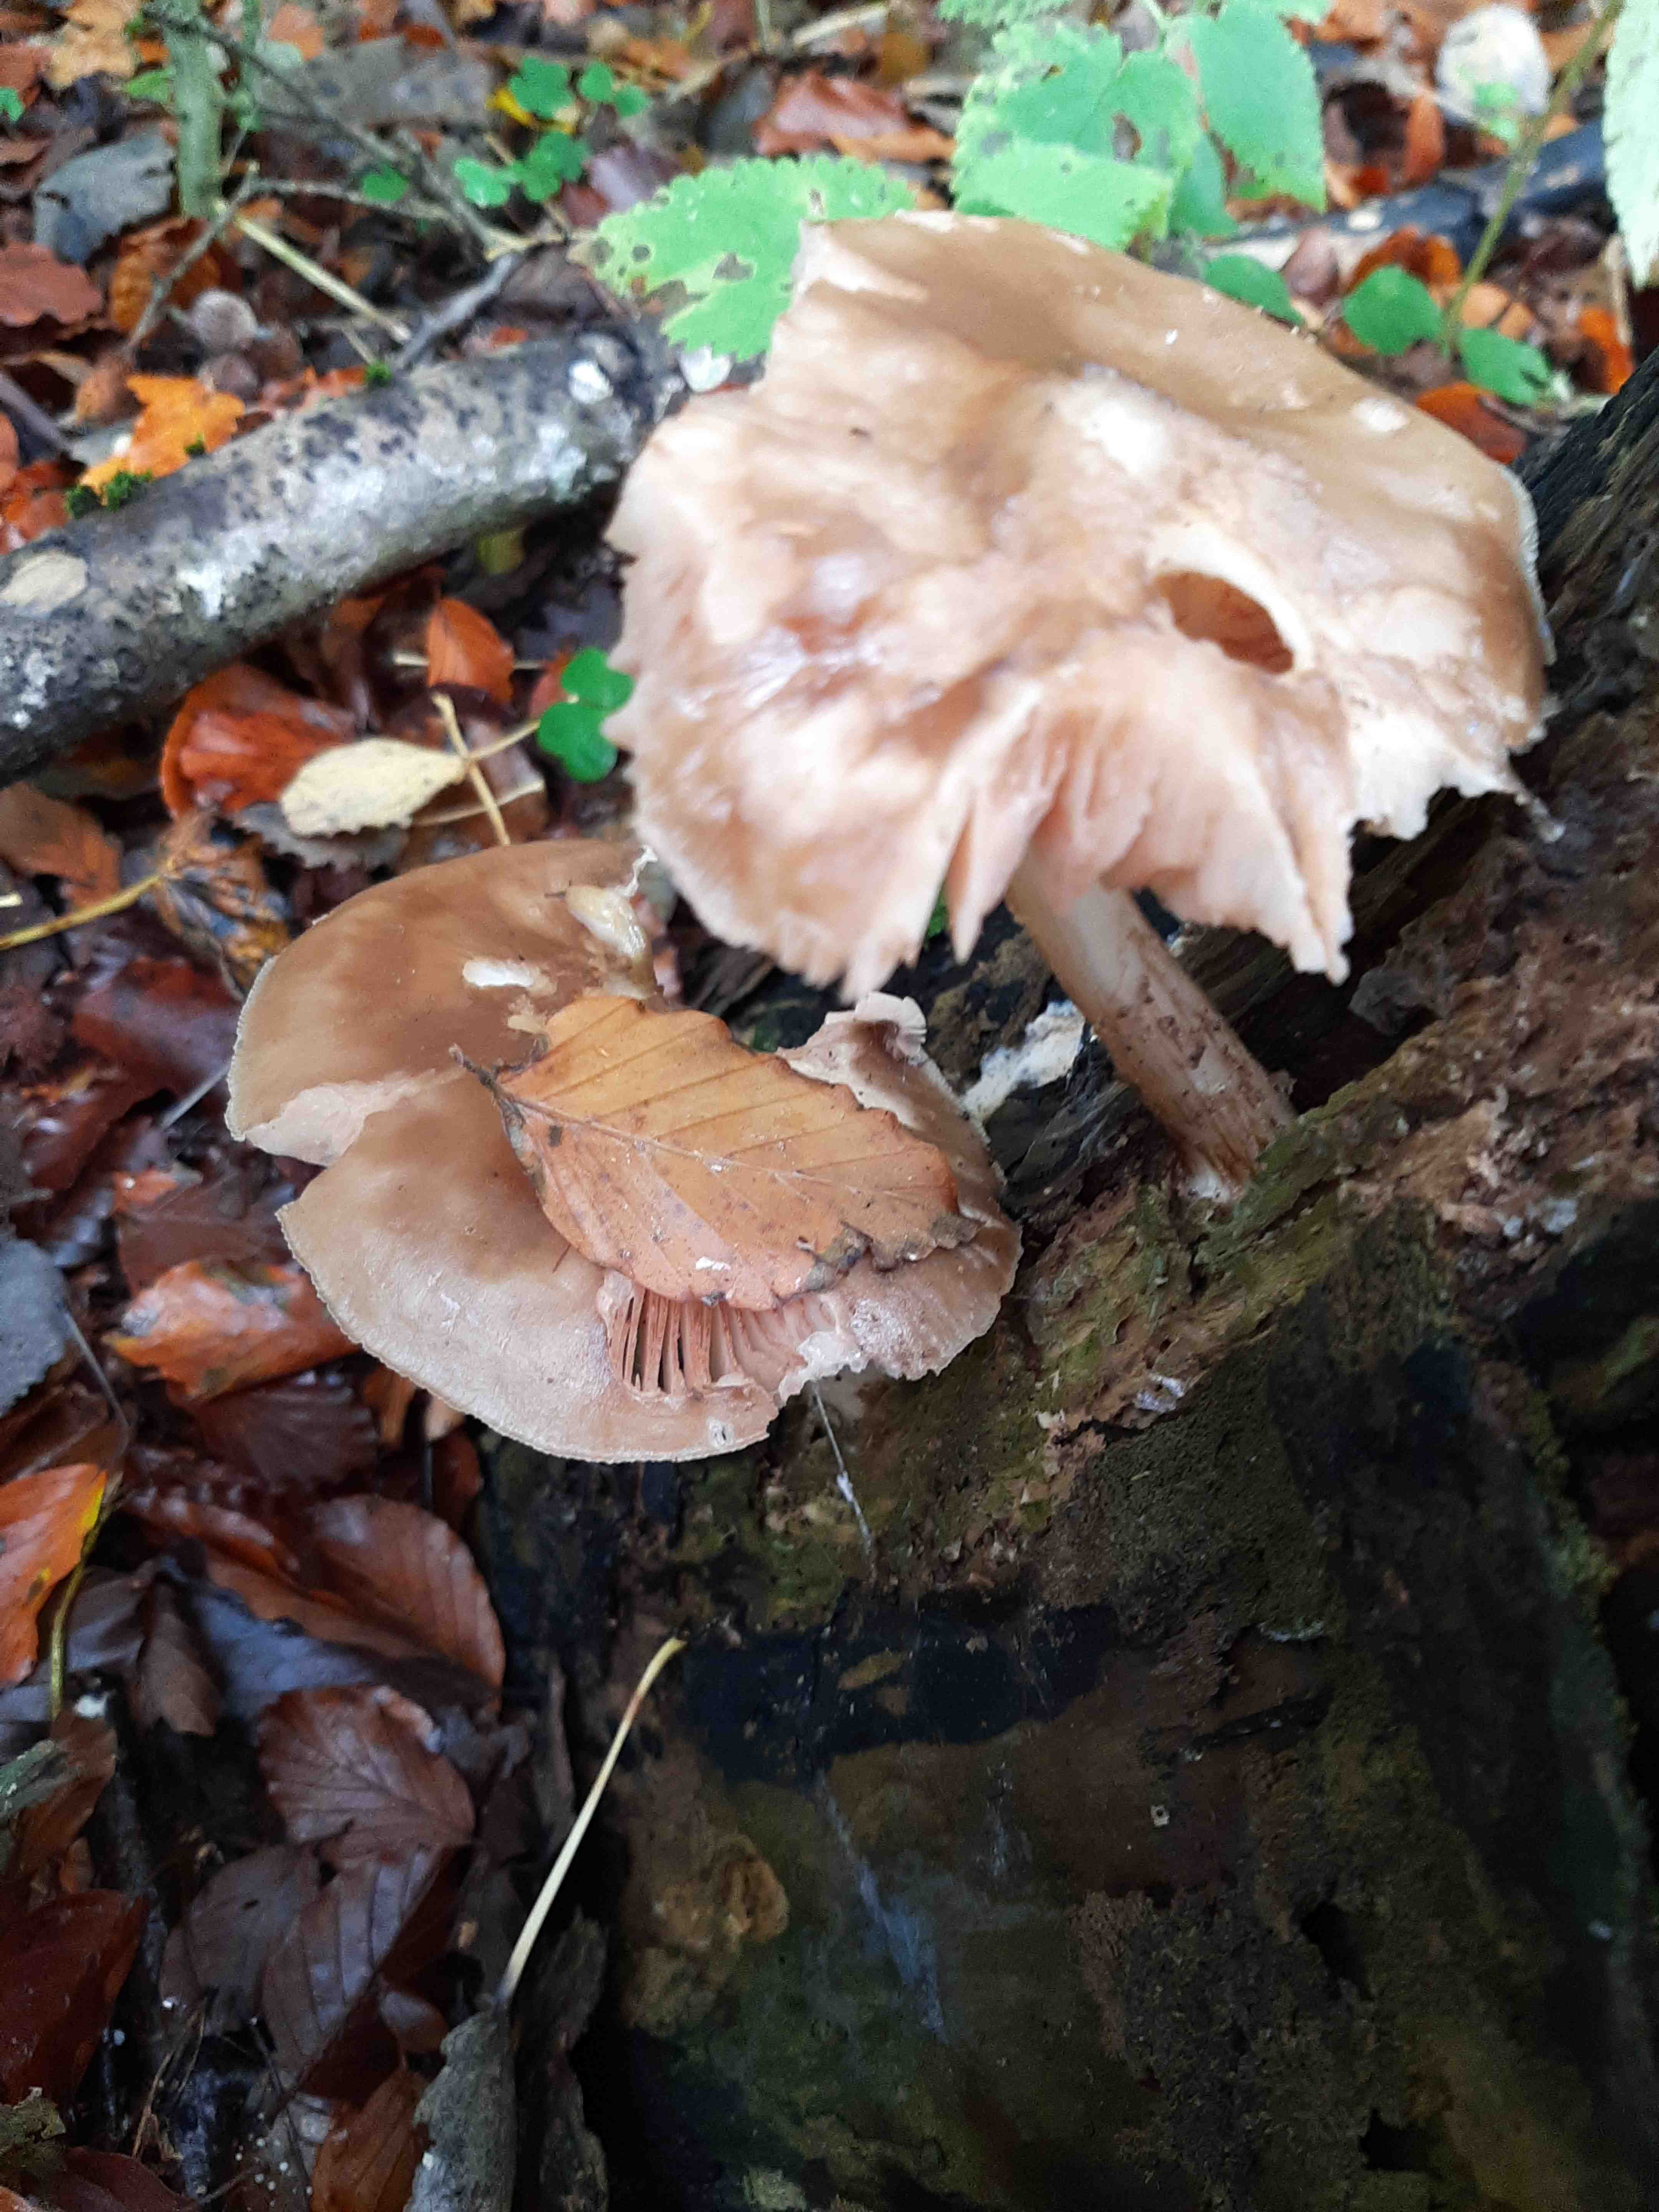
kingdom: Fungi
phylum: Basidiomycota
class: Agaricomycetes
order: Agaricales
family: Tricholomataceae
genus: Megacollybia
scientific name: Megacollybia platyphylla
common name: bredbladet væbnerhat
